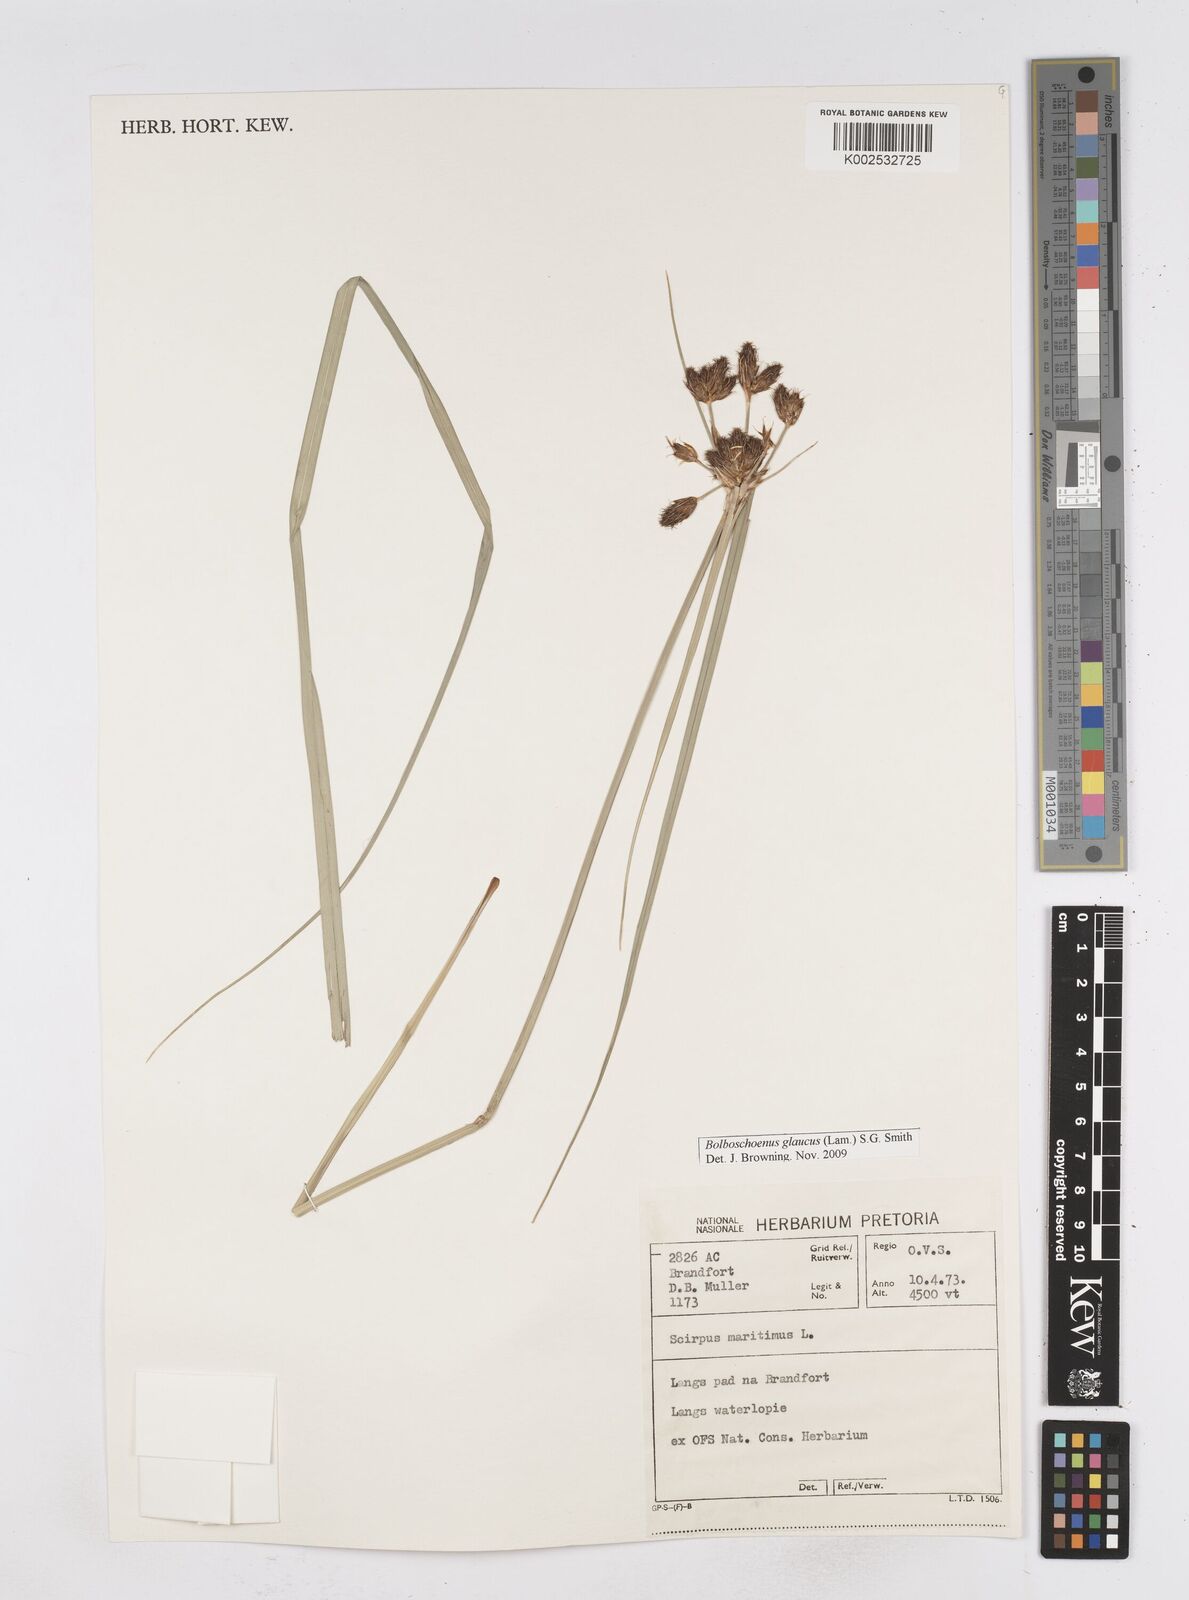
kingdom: Plantae
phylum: Tracheophyta
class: Liliopsida
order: Poales
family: Cyperaceae
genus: Bolboschoenus
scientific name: Bolboschoenus maritimus
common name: Sea club-rush
